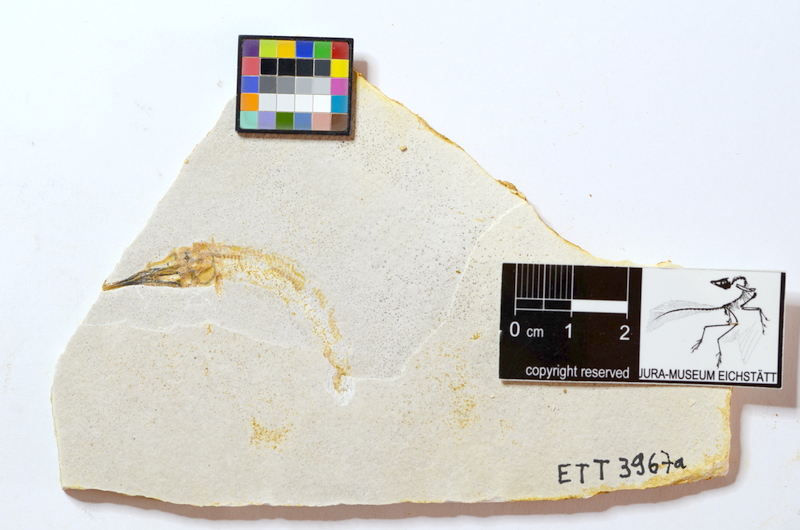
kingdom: Animalia
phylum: Chordata
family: Aspidorhynchidae
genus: Belonostomus
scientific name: Belonostomus kochii
